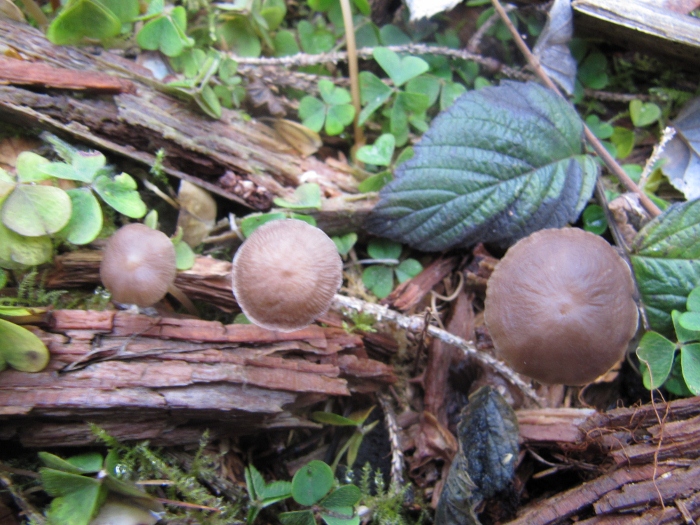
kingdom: Fungi
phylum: Basidiomycota
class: Agaricomycetes
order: Agaricales
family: Physalacriaceae
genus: Strobilurus
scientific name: Strobilurus esculentus
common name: gran-koglehat
